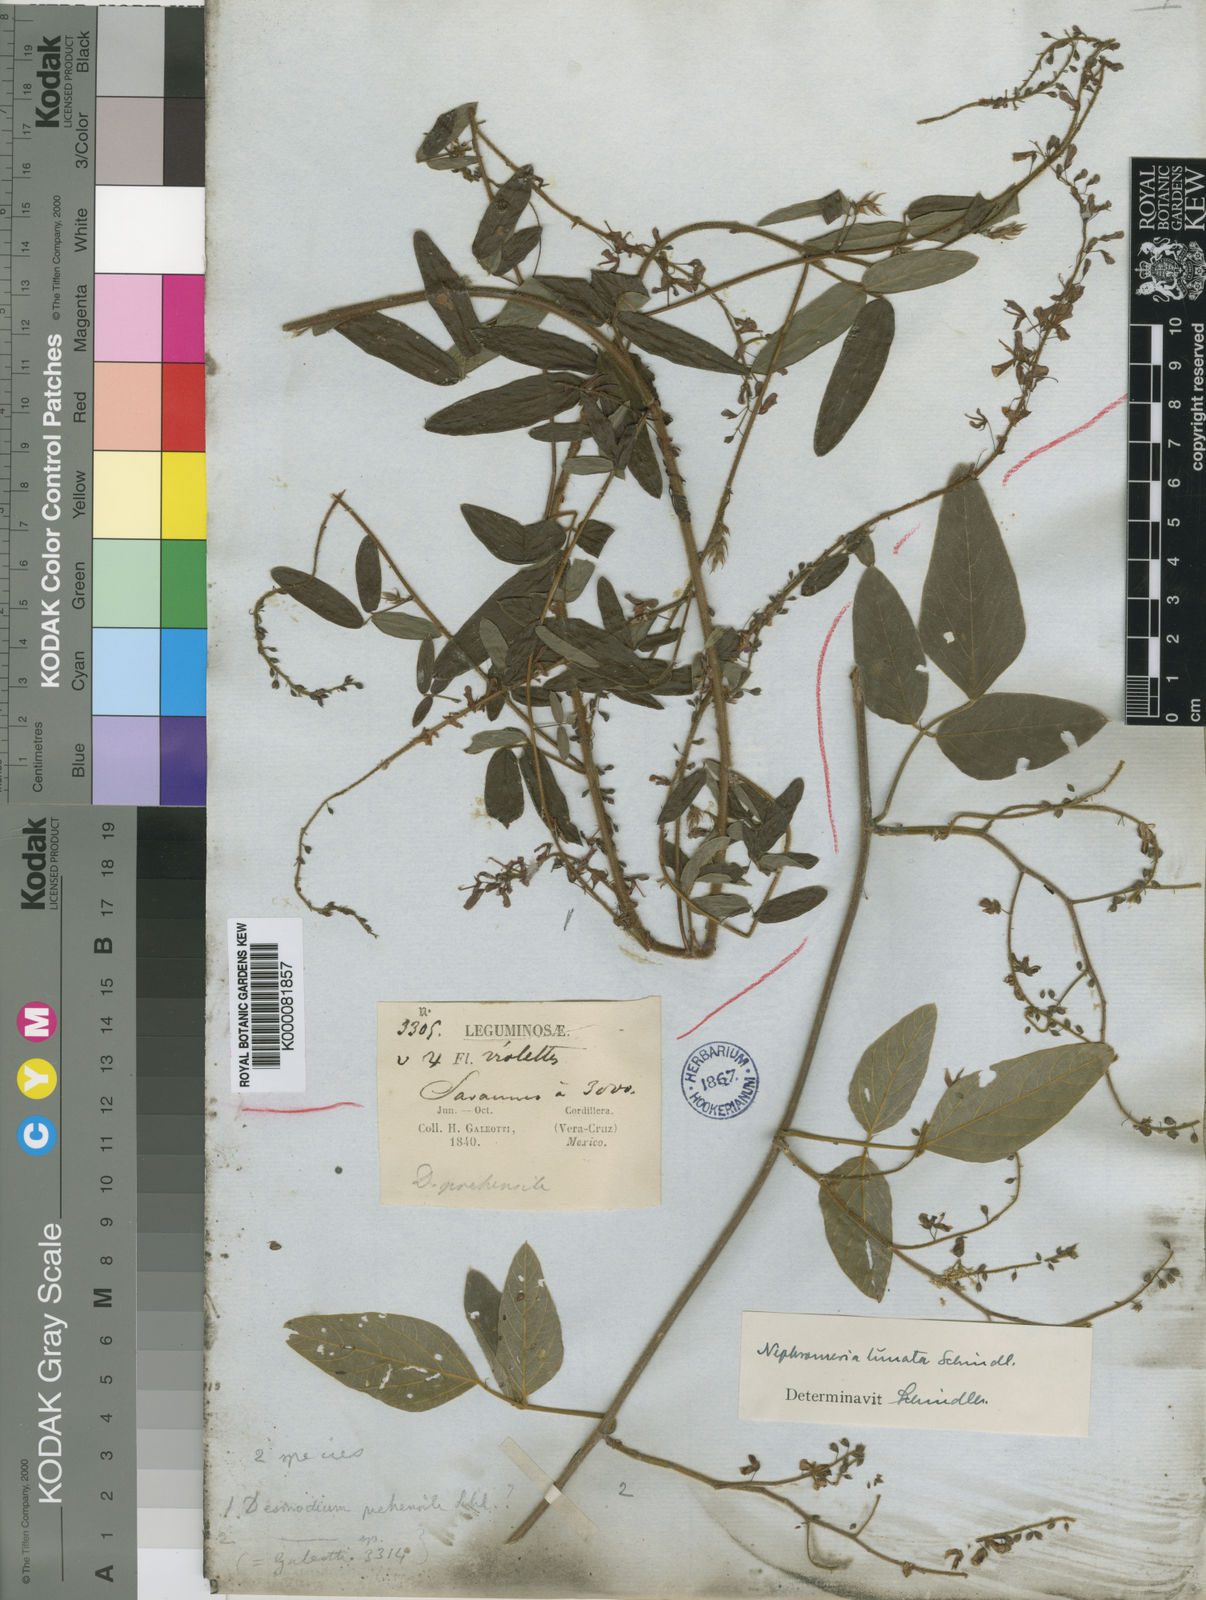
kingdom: Plantae
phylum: Tracheophyta
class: Magnoliopsida
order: Fabales
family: Fabaceae
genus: Desmodium
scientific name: Desmodium prehensile
